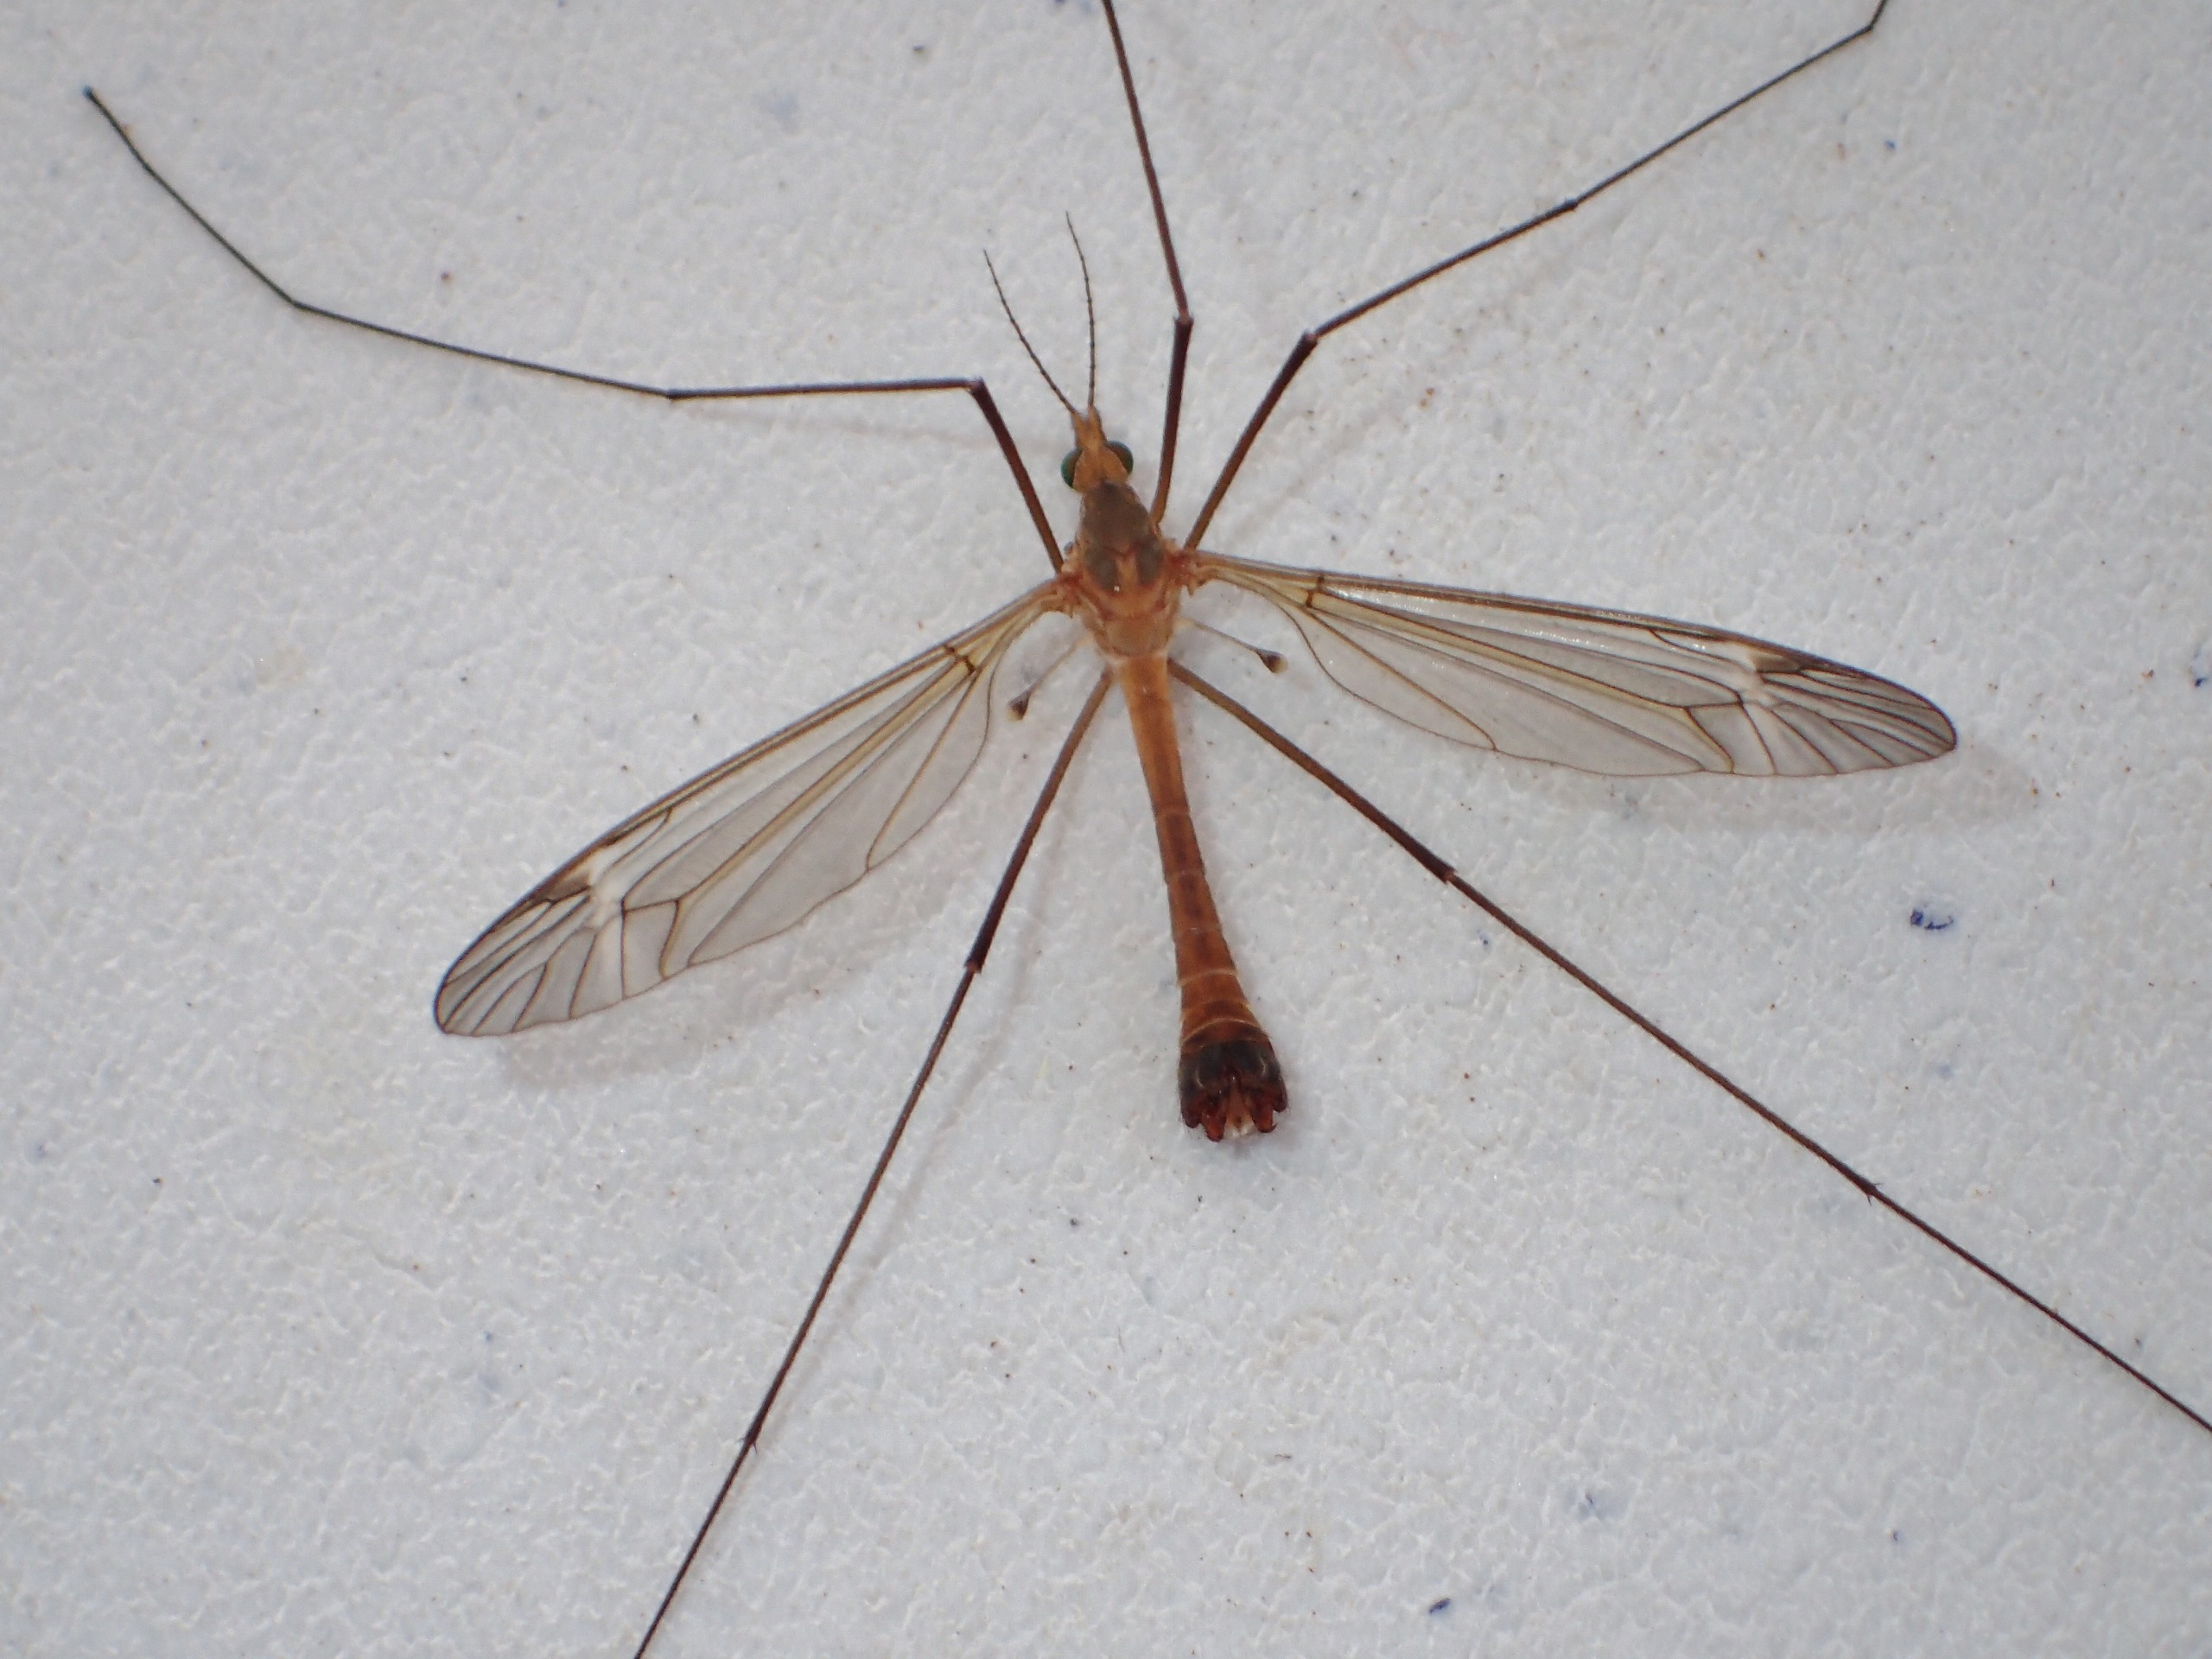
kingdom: Animalia
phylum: Arthropoda
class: Insecta
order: Diptera
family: Tipulidae
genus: Tipula
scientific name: Tipula fascipennis
